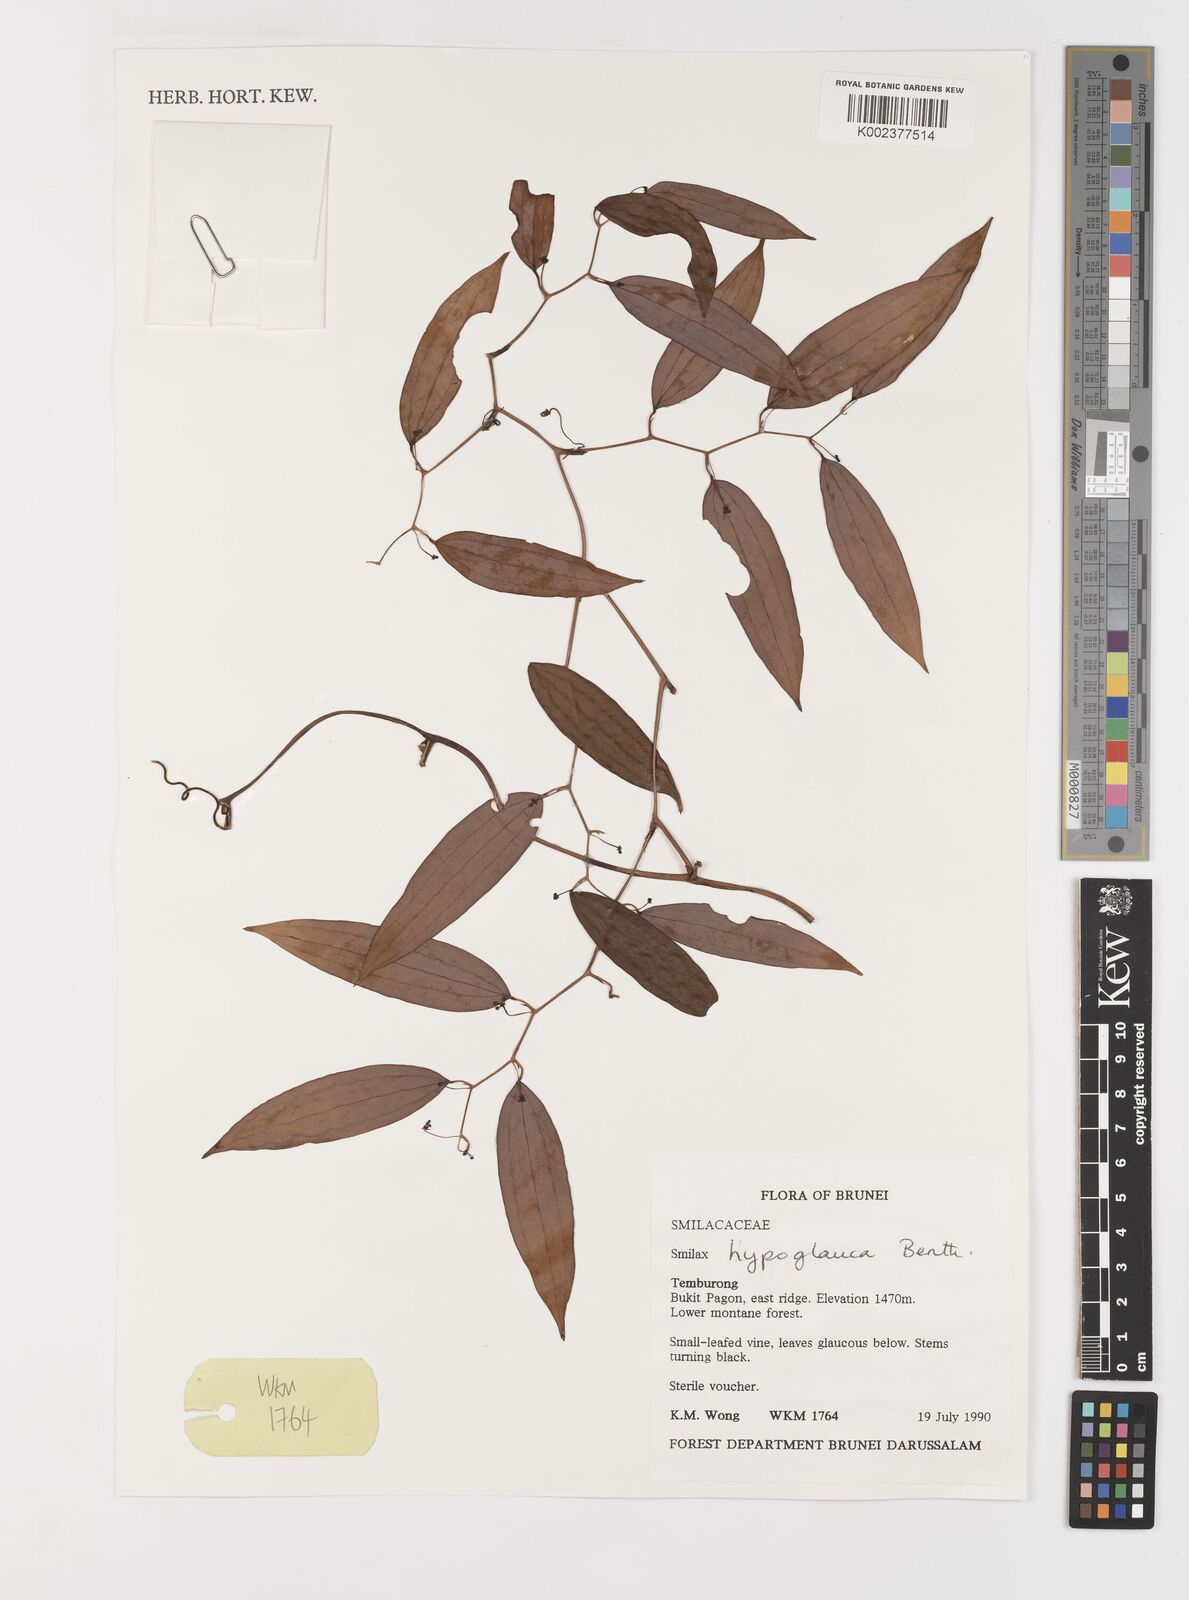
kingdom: Plantae
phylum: Tracheophyta
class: Liliopsida
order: Liliales
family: Smilacaceae
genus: Smilax
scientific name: Smilax hypoglauca
